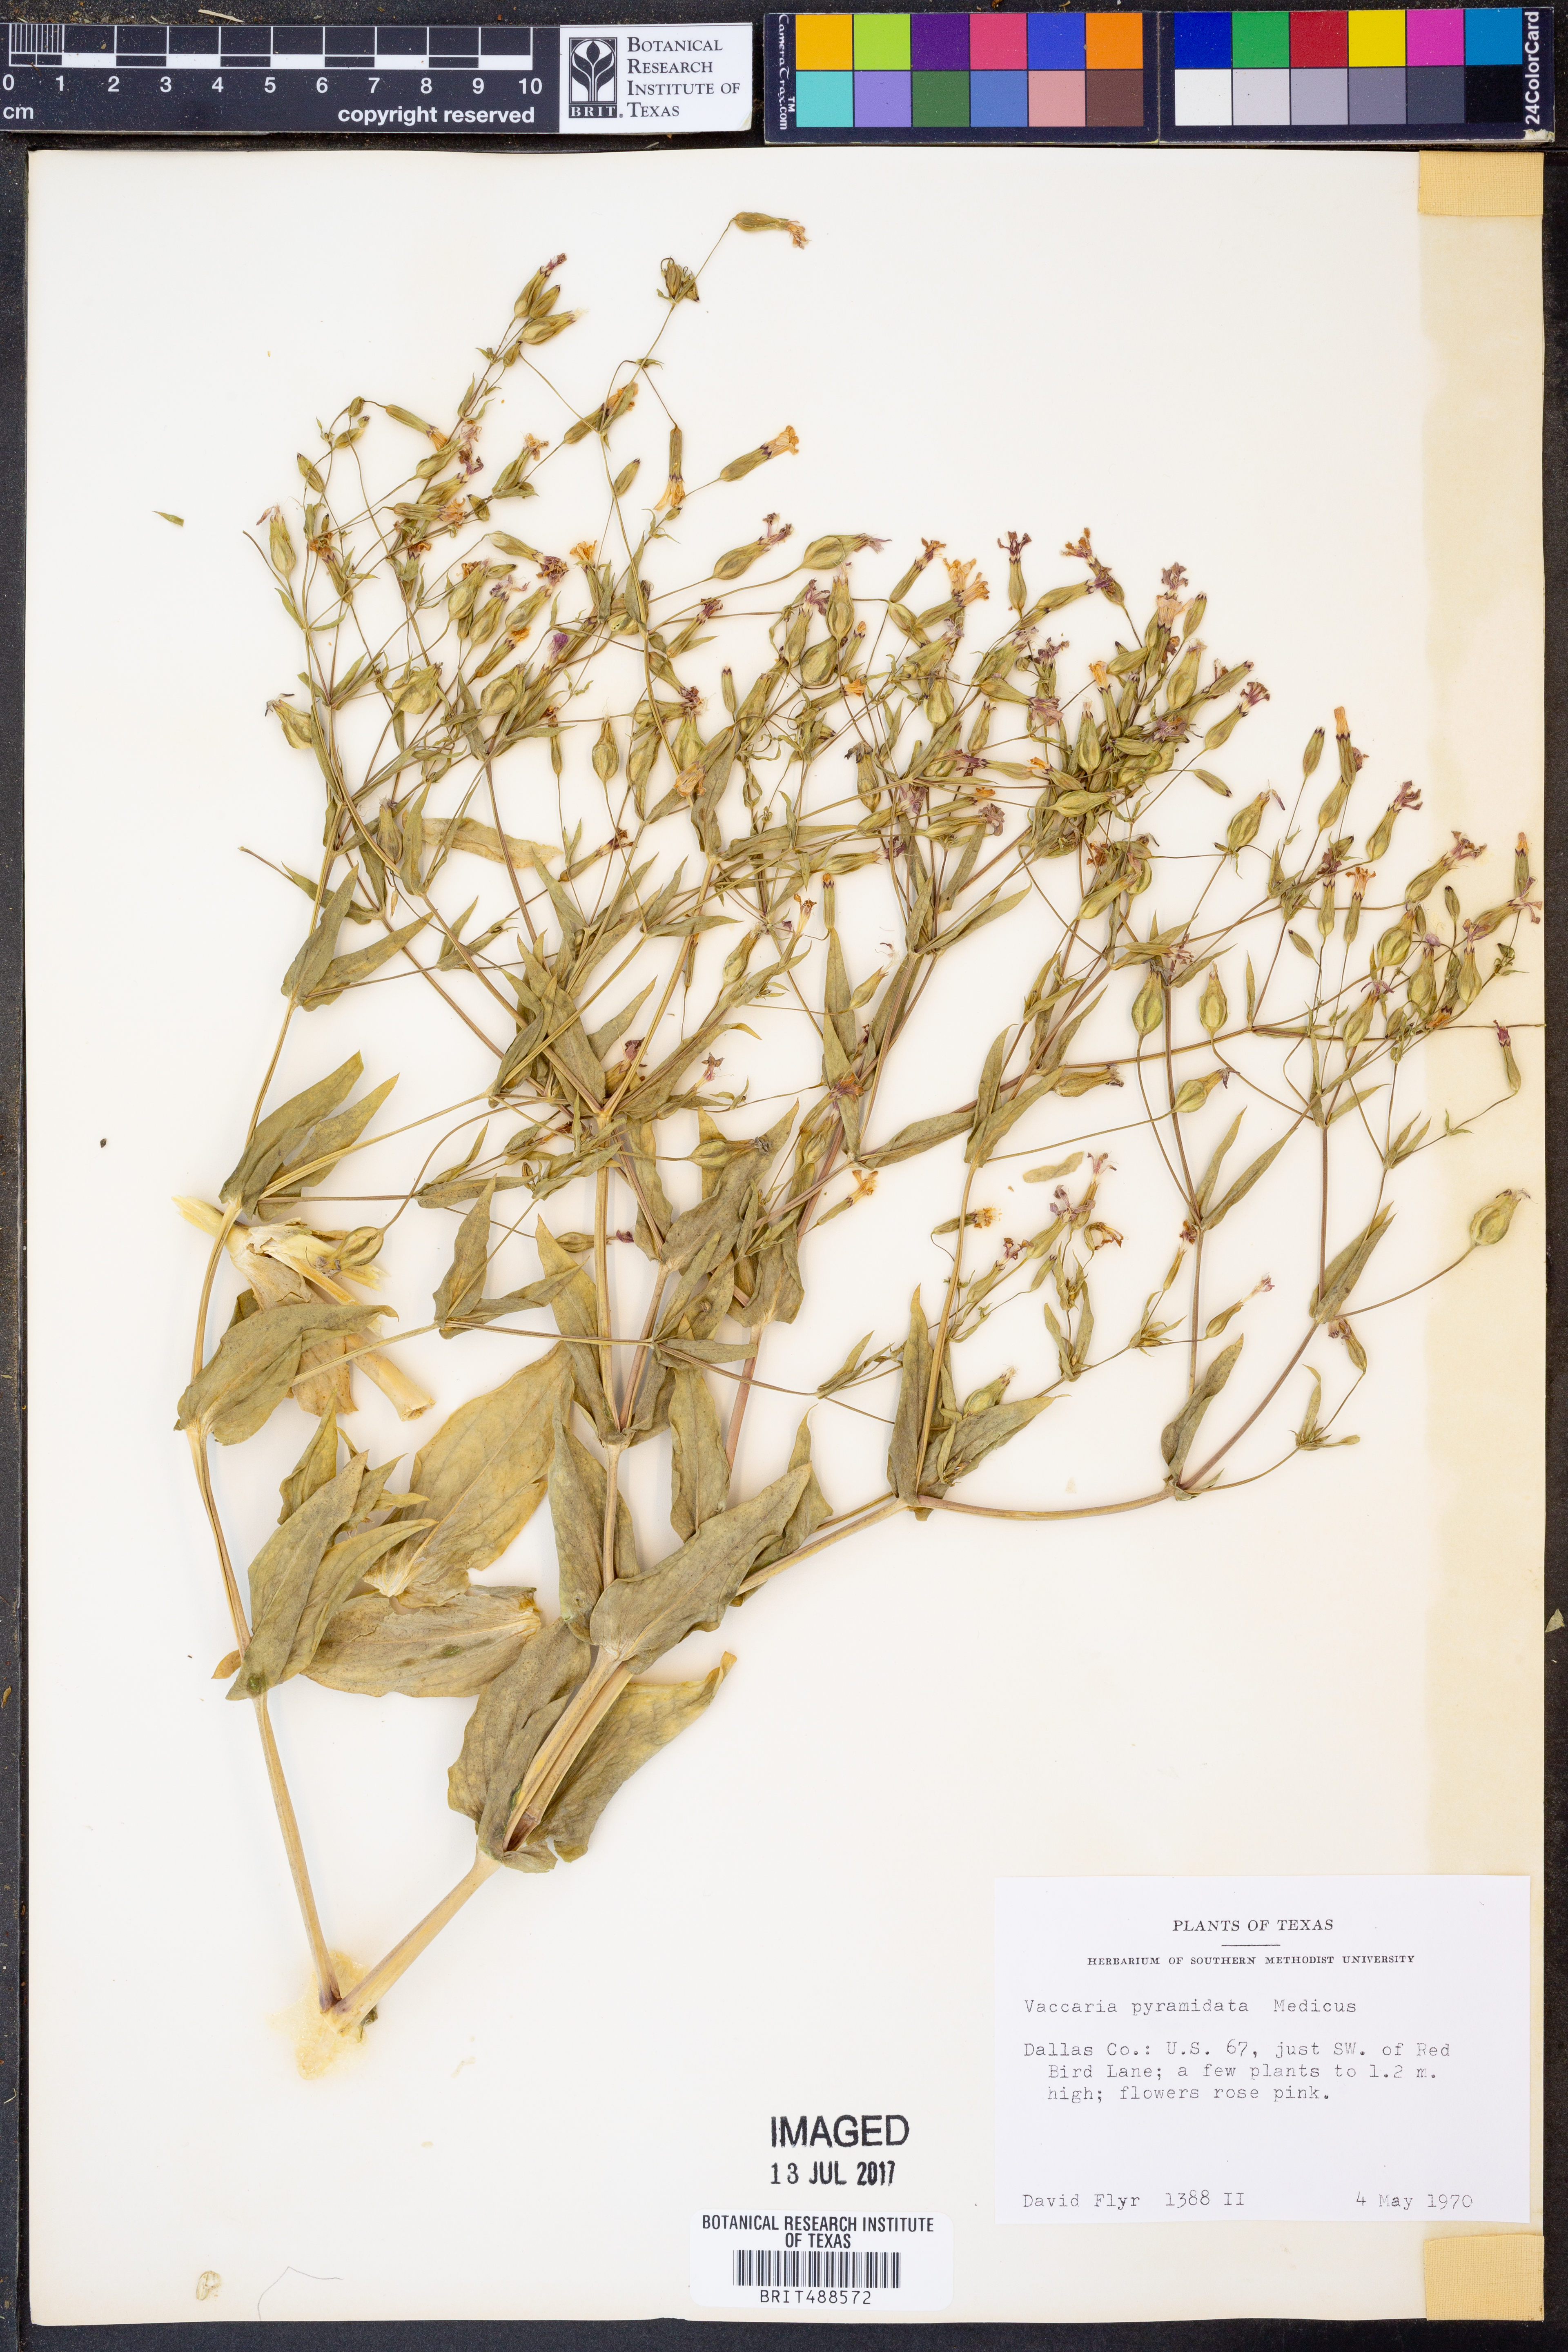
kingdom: Plantae
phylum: Tracheophyta
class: Magnoliopsida
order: Caryophyllales
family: Caryophyllaceae
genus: Gypsophila
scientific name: Gypsophila vaccaria
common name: Cow soapwort
